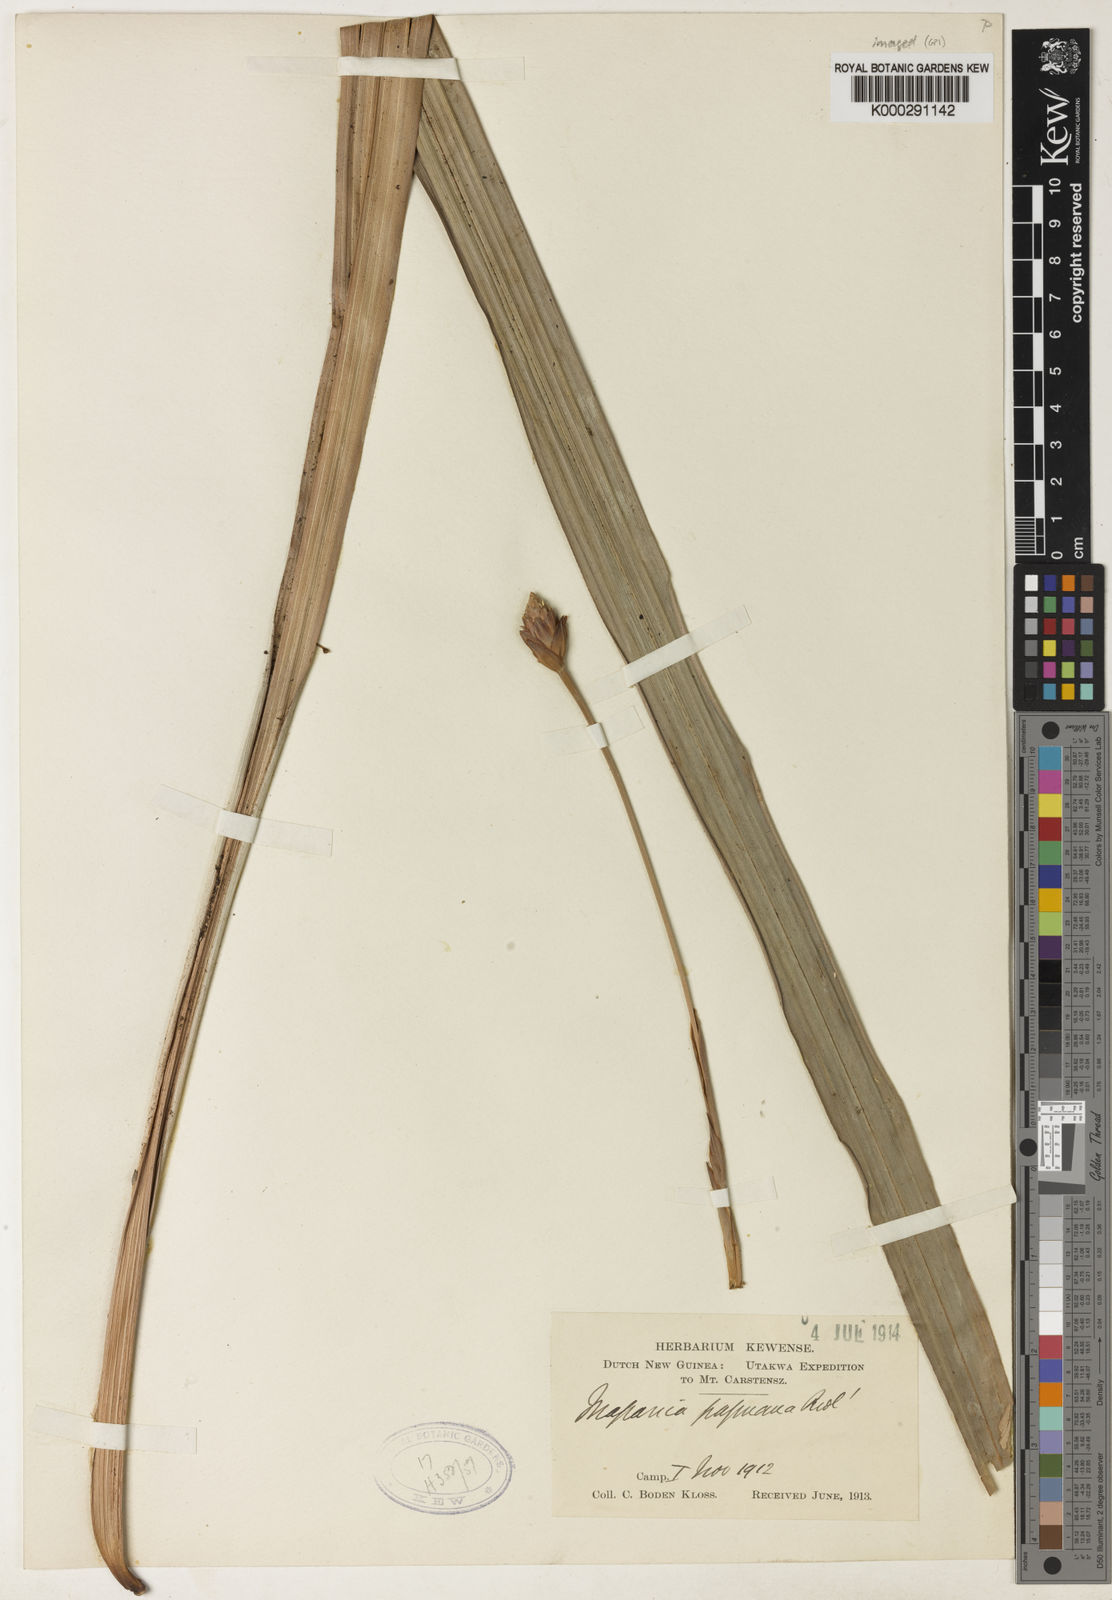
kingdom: Plantae
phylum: Tracheophyta
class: Liliopsida
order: Poales
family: Cyperaceae
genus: Mapania
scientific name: Mapania baccifera
